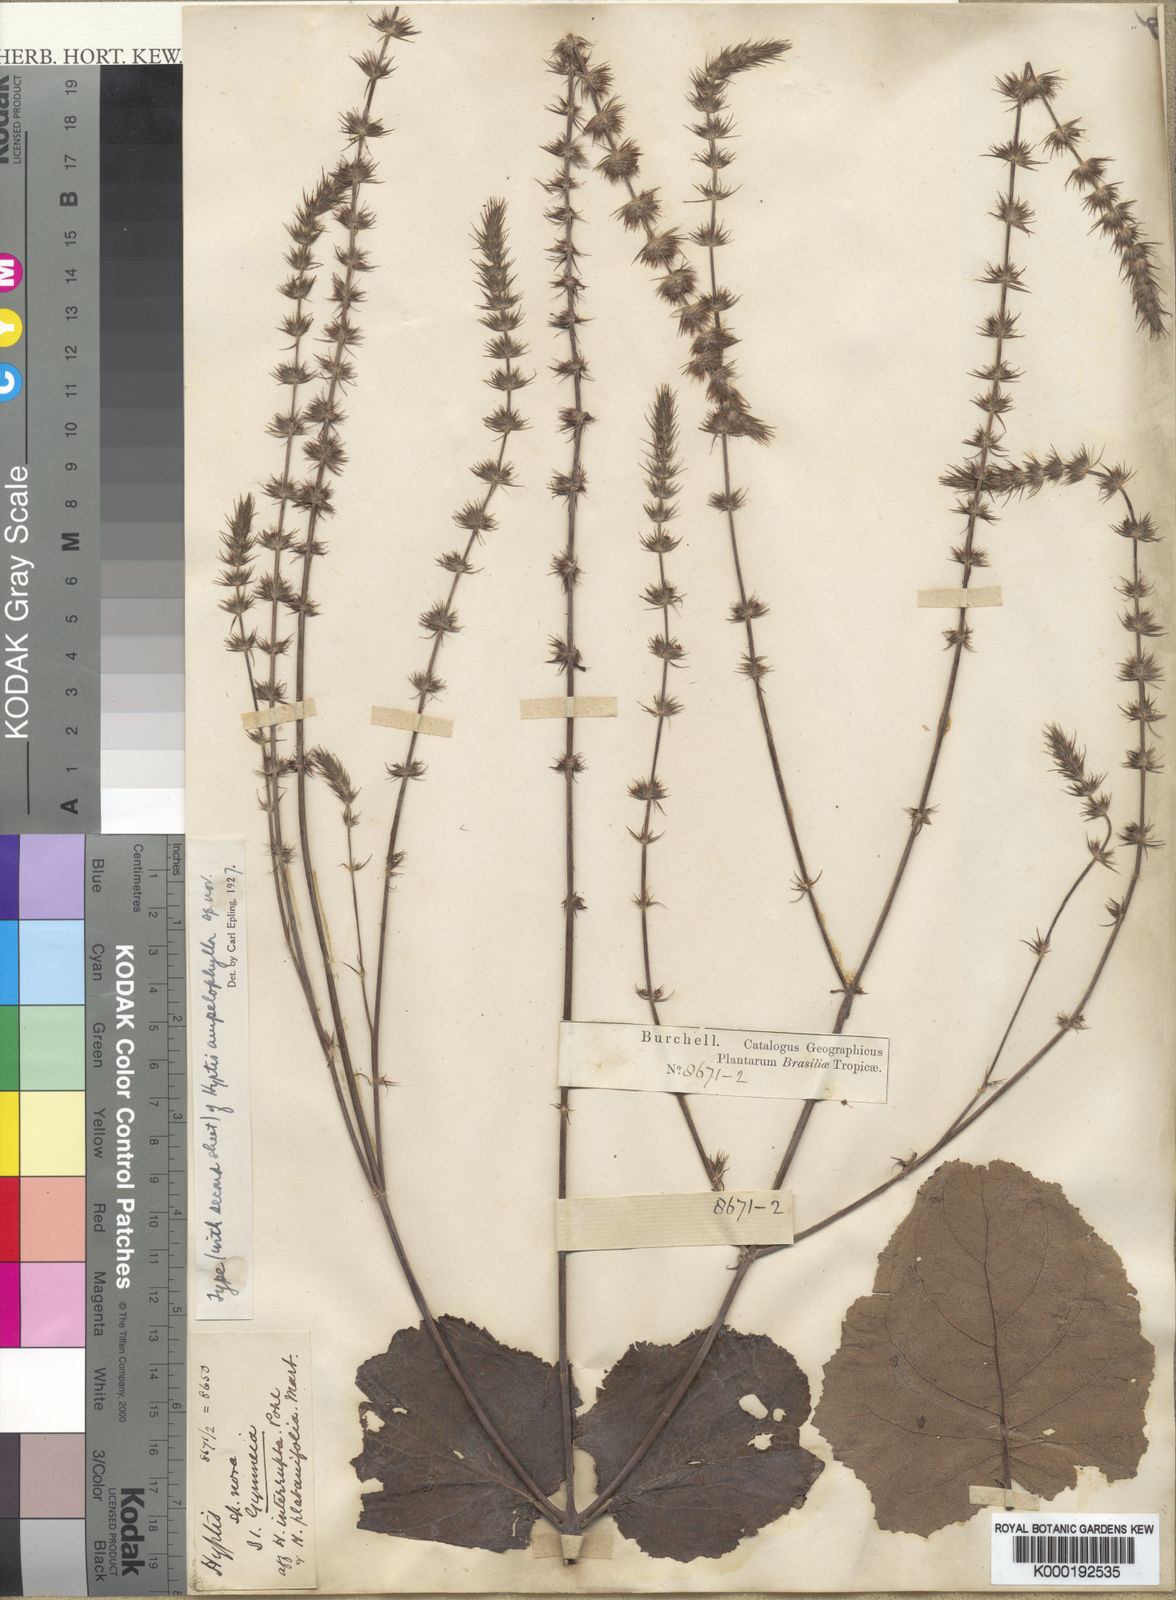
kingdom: Plantae
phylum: Tracheophyta
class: Magnoliopsida
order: Lamiales
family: Lamiaceae
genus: Gymneia
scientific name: Gymneia ampelophylla
